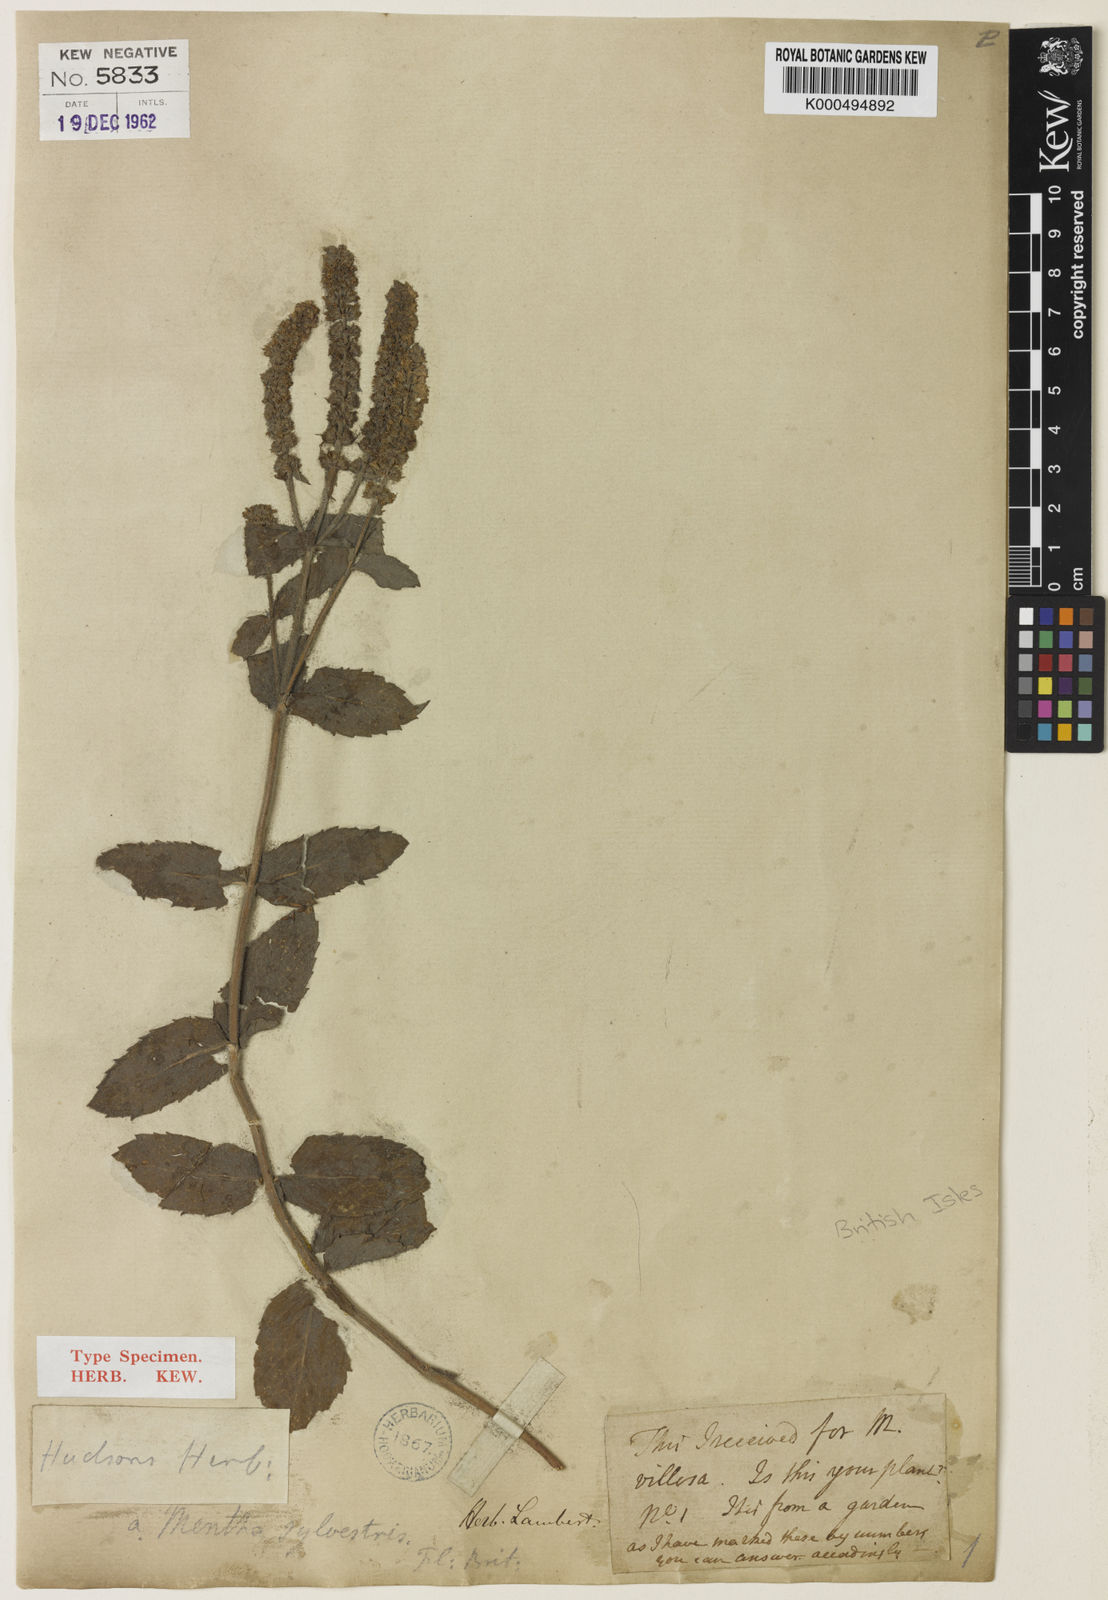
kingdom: Plantae
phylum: Tracheophyta
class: Magnoliopsida
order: Lamiales
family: Lamiaceae
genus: Mentha
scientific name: Mentha villosa
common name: Apple mint
